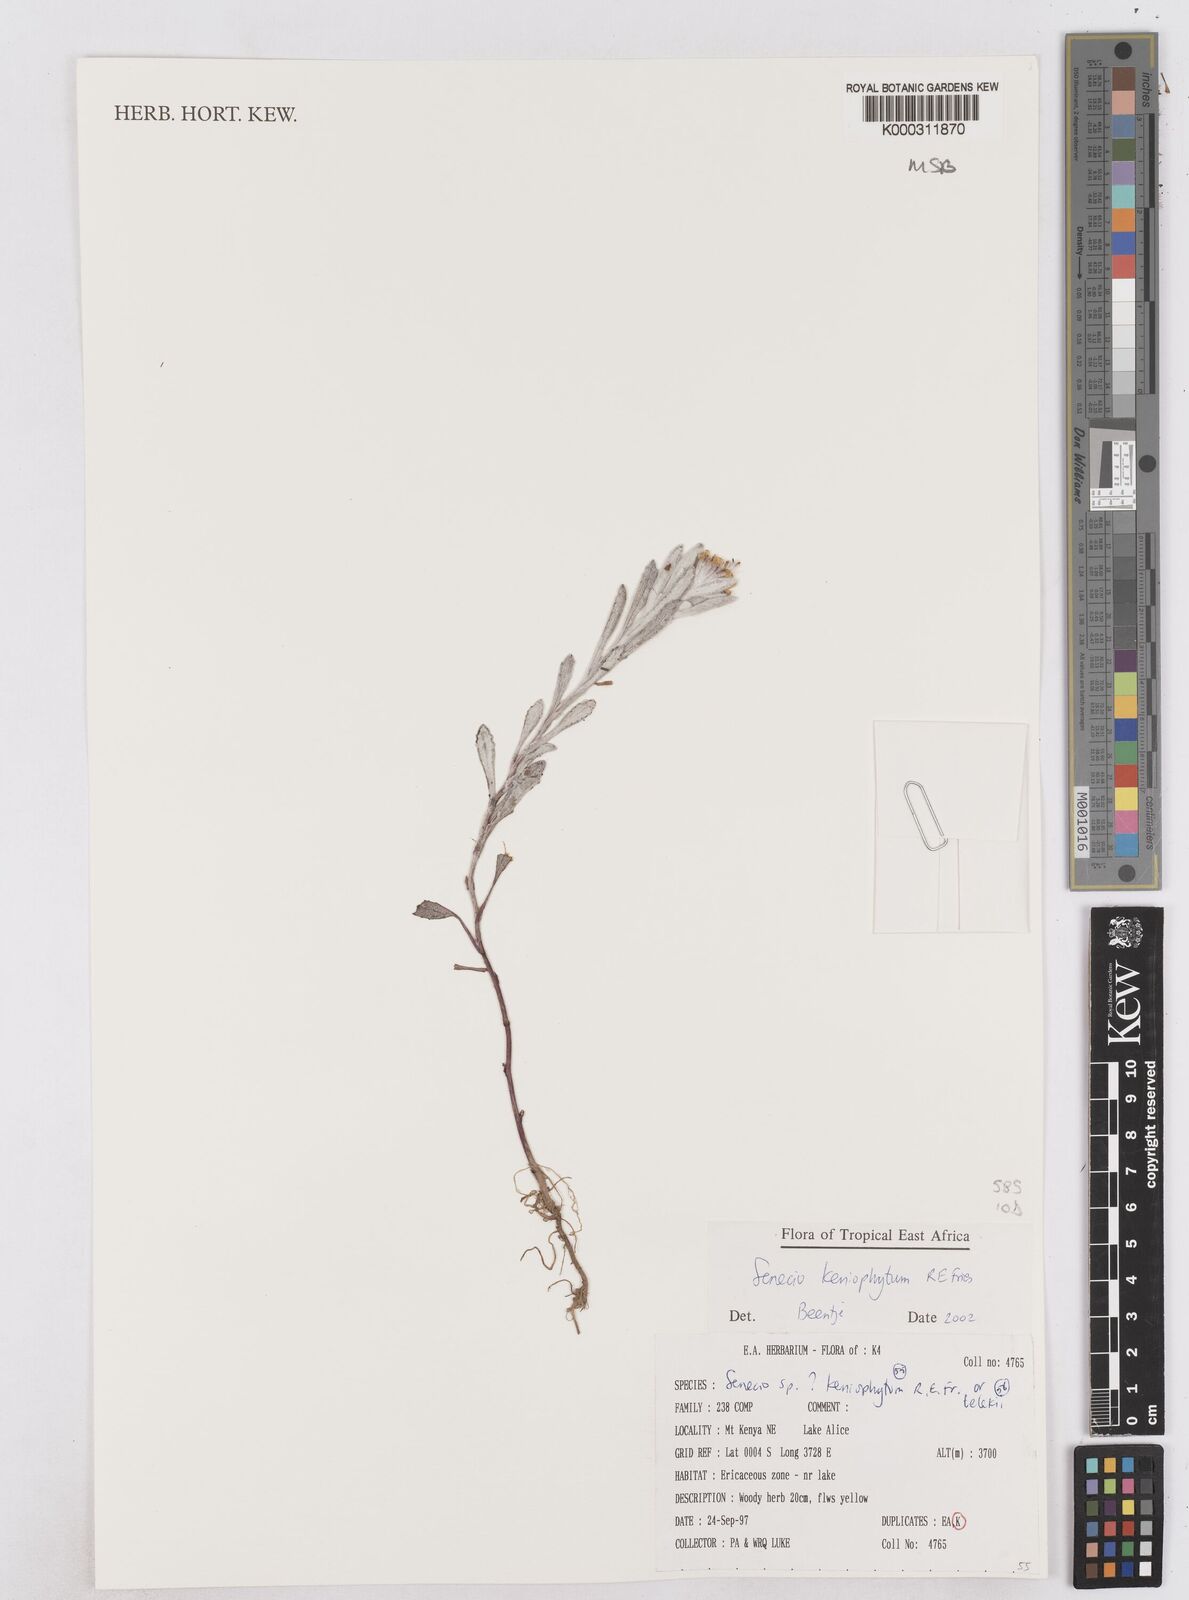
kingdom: Plantae
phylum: Tracheophyta
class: Magnoliopsida
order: Asterales
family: Asteraceae
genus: Senecio
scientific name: Senecio keniophytum
